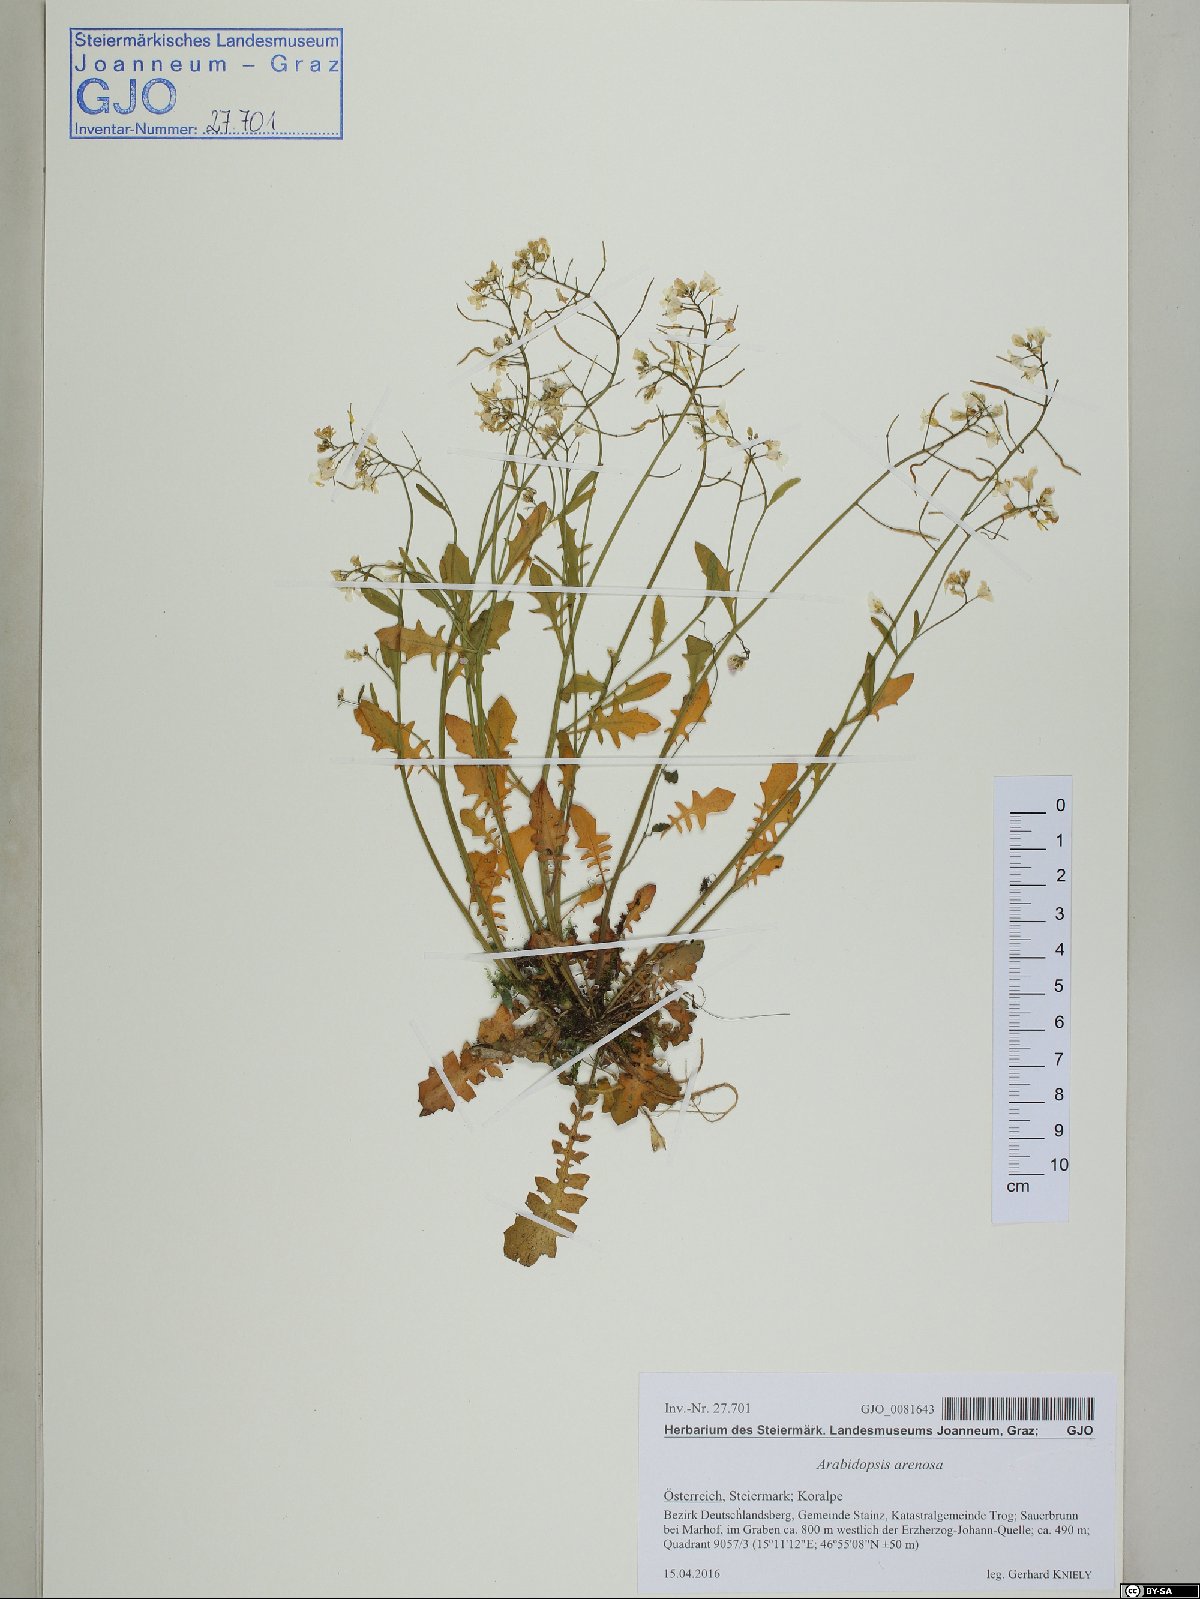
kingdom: Plantae
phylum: Tracheophyta
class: Magnoliopsida
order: Brassicales
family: Brassicaceae
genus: Arabidopsis
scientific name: Arabidopsis arenosa
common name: Sand rock-cress
